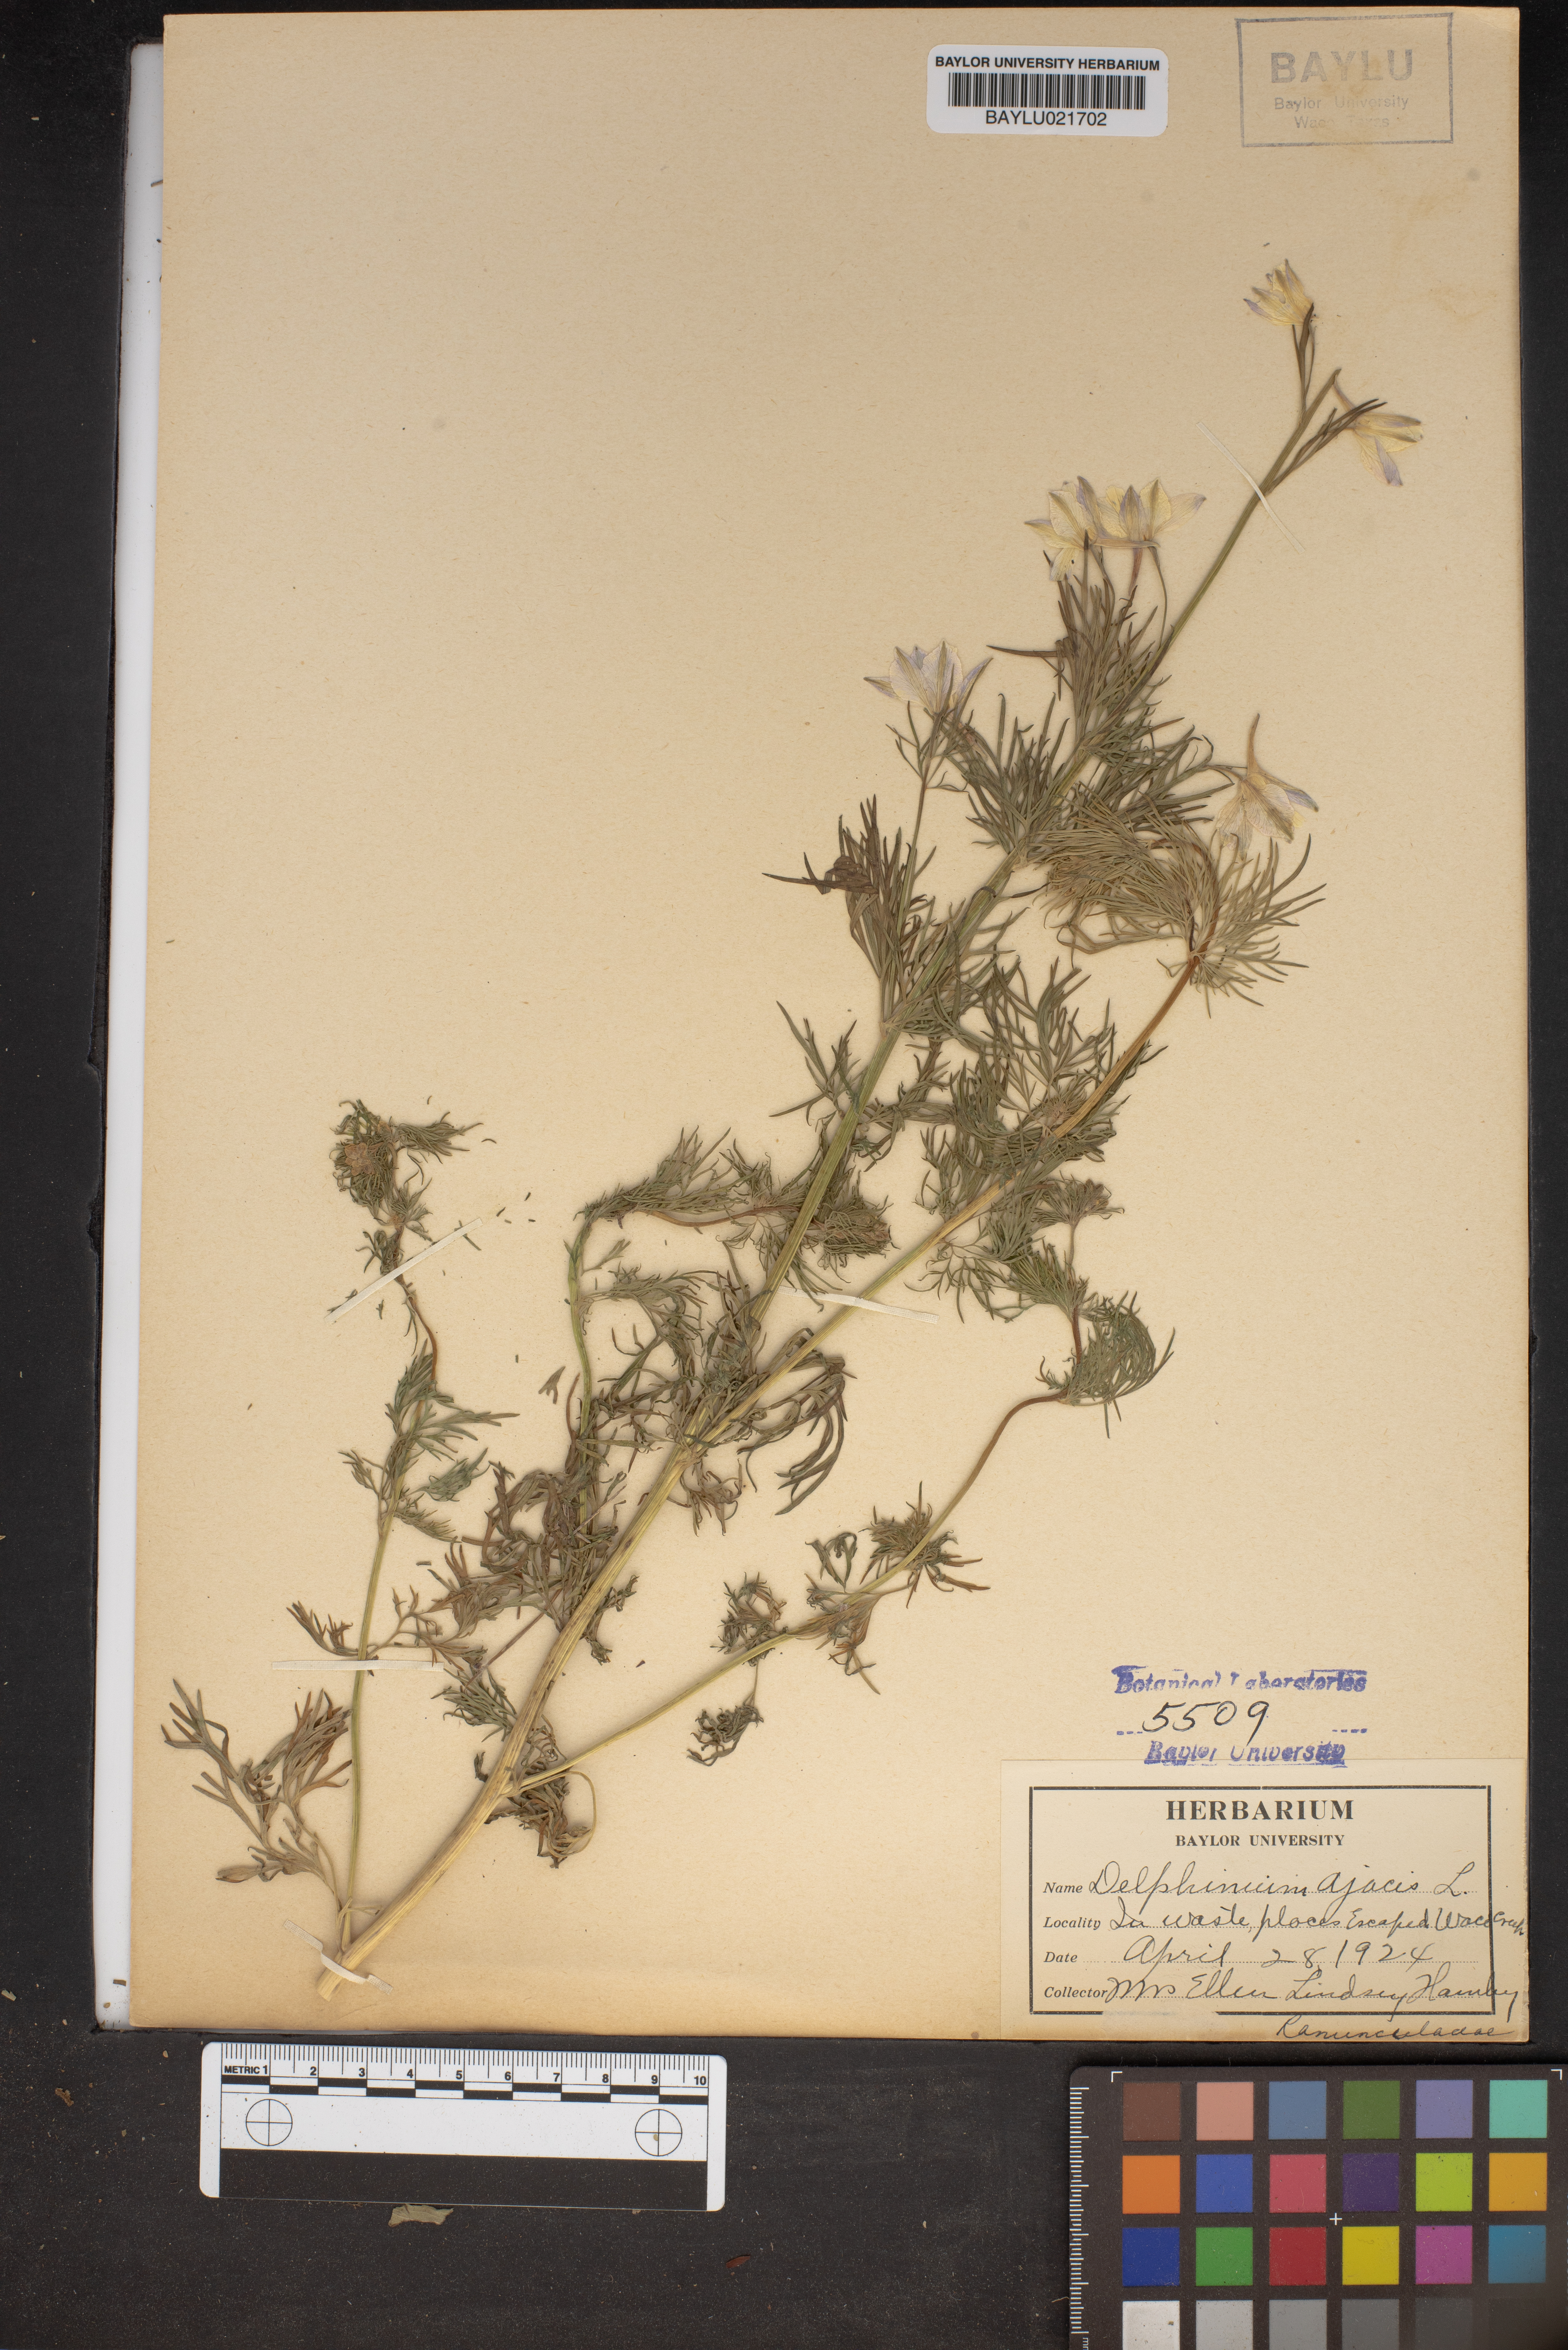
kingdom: Plantae
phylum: Tracheophyta
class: Magnoliopsida
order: Ranunculales
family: Ranunculaceae
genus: Delphinium
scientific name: Delphinium ajacis
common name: Doubtful knight's-spur
